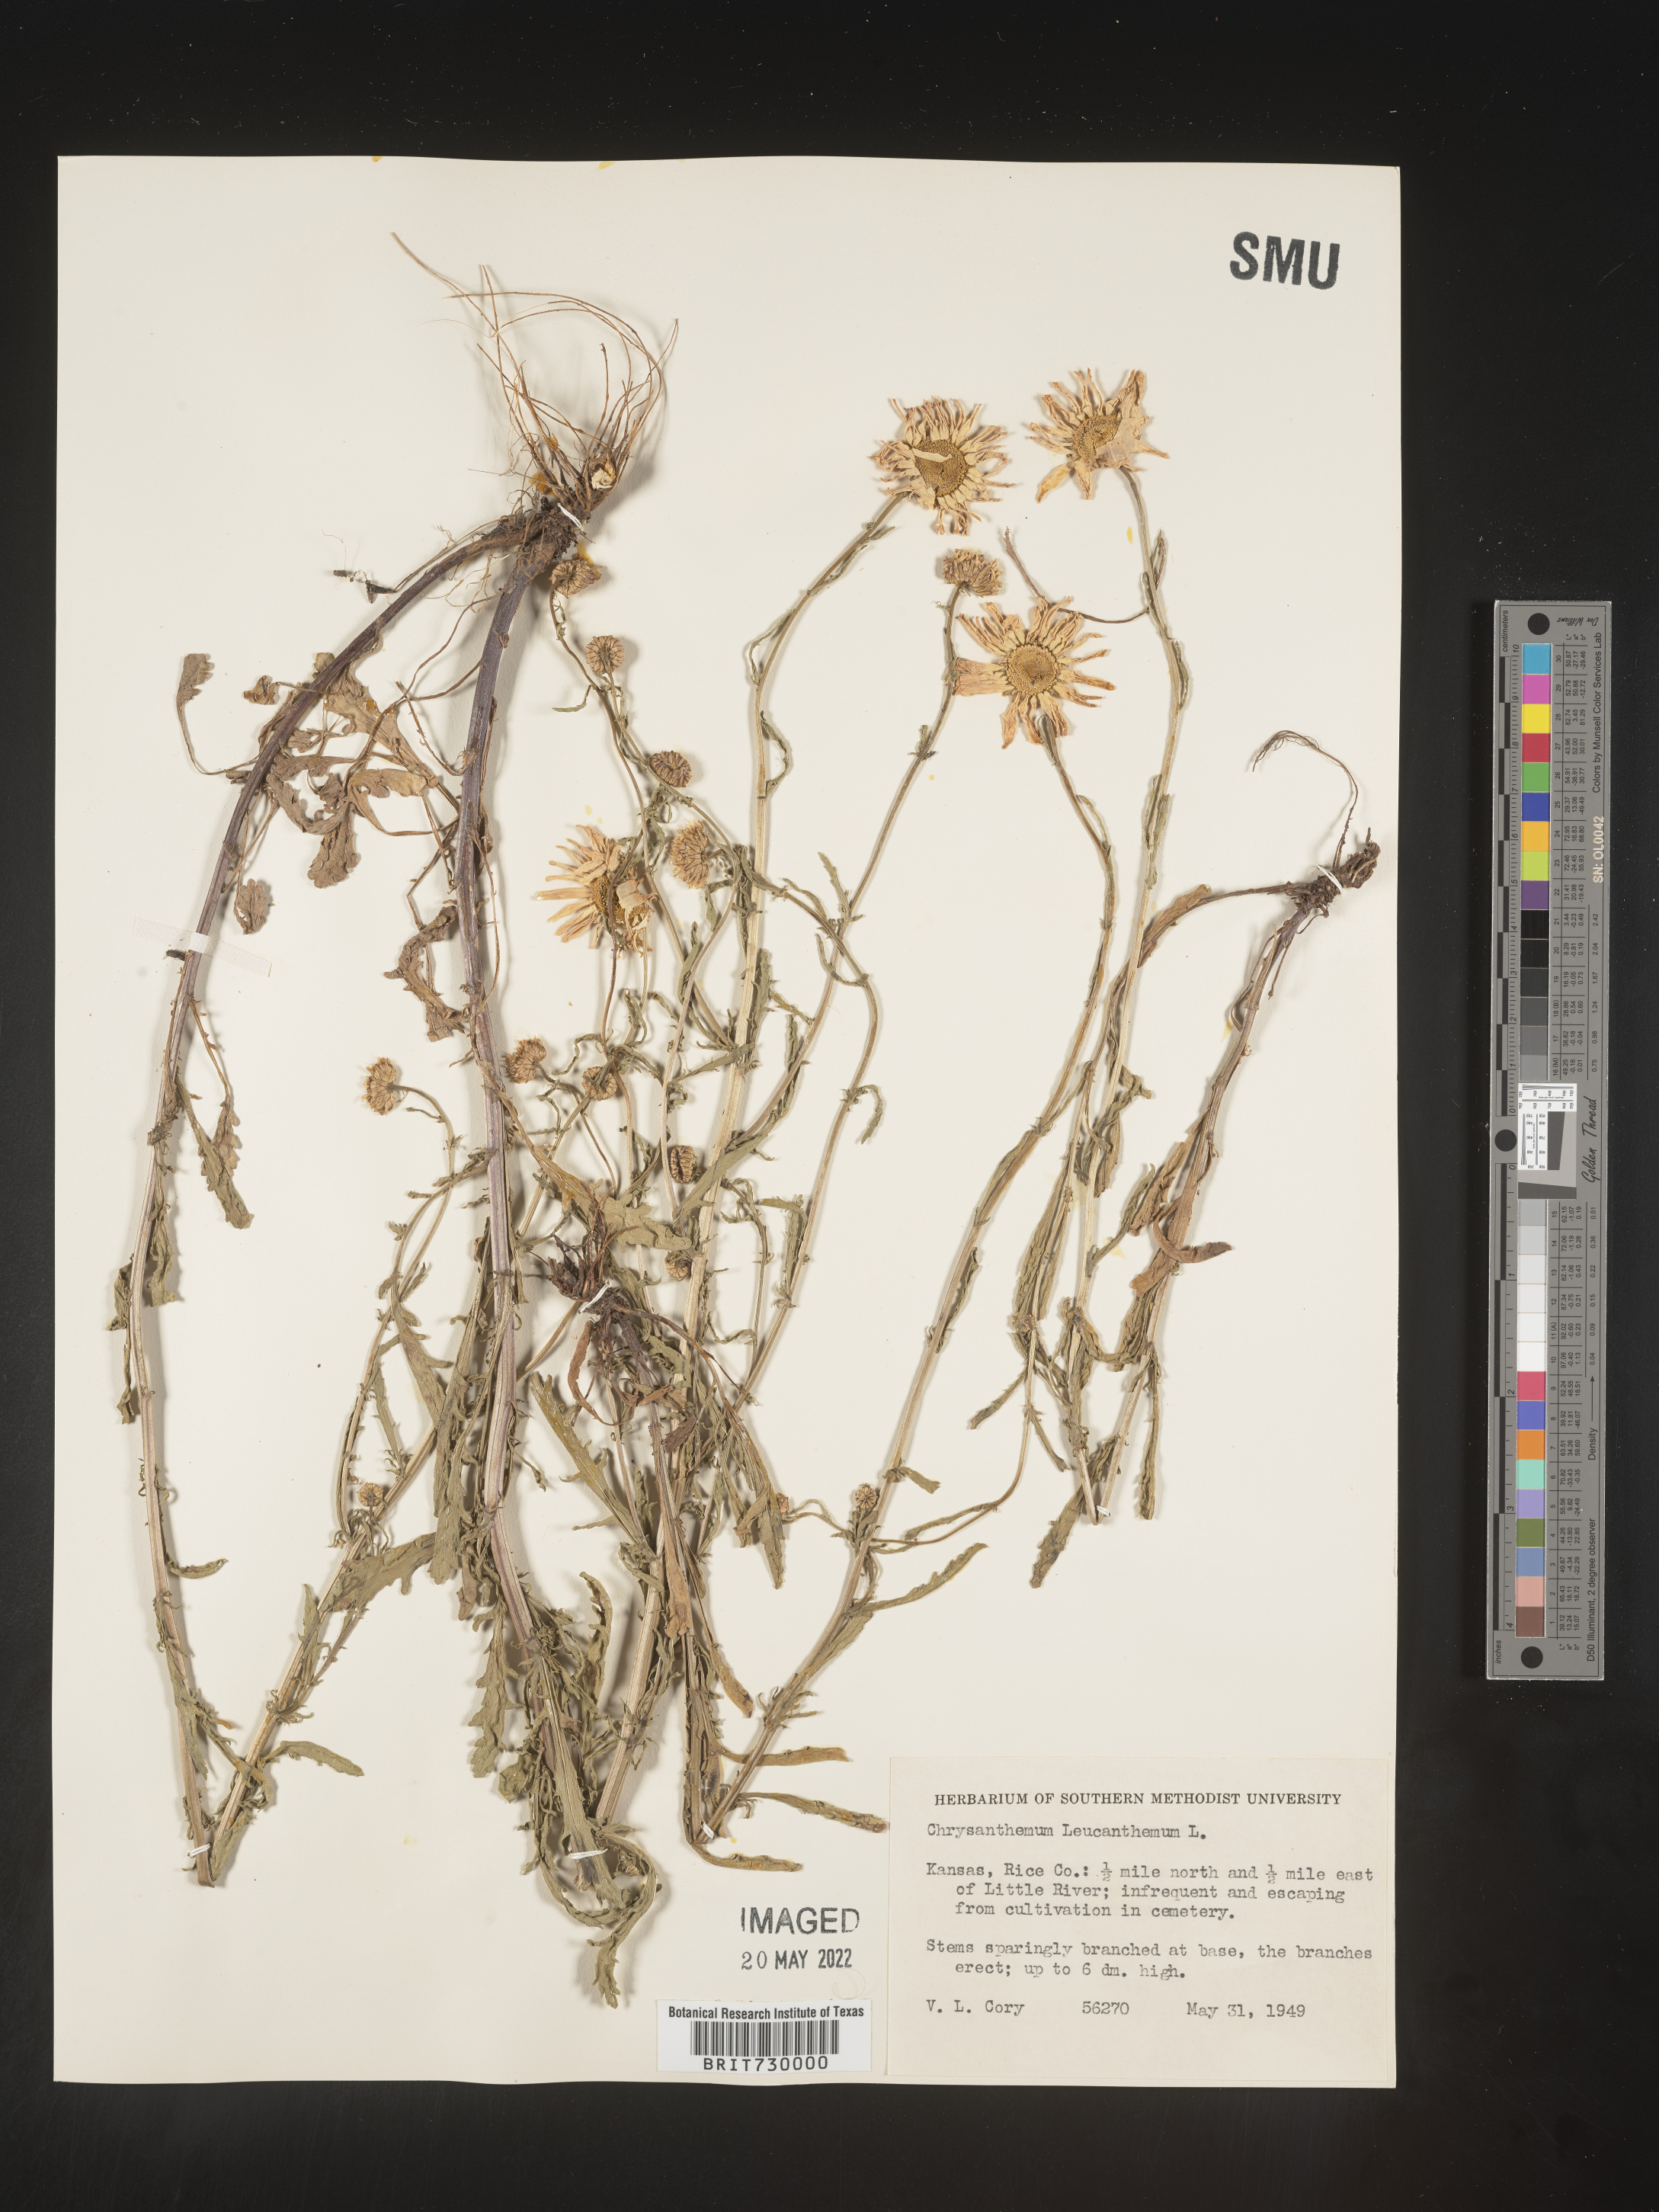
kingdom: Plantae
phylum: Tracheophyta
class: Magnoliopsida
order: Asterales
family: Asteraceae
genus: Leucanthemum
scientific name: Leucanthemum vulgare
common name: Oxeye daisy
